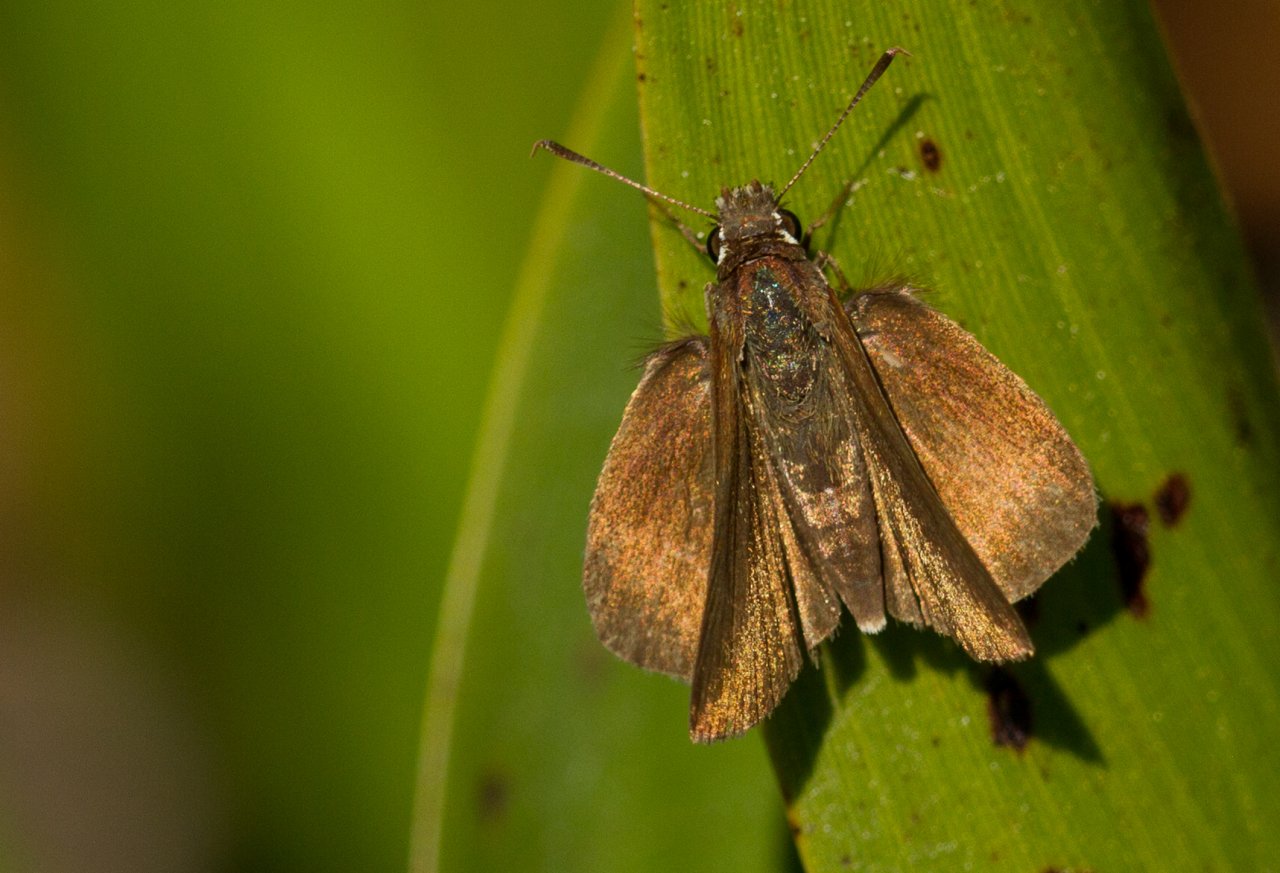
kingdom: Animalia
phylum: Arthropoda
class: Insecta
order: Lepidoptera
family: Hesperiidae
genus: Nastra
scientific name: Nastra lherminier
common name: Swarthy Skipper
